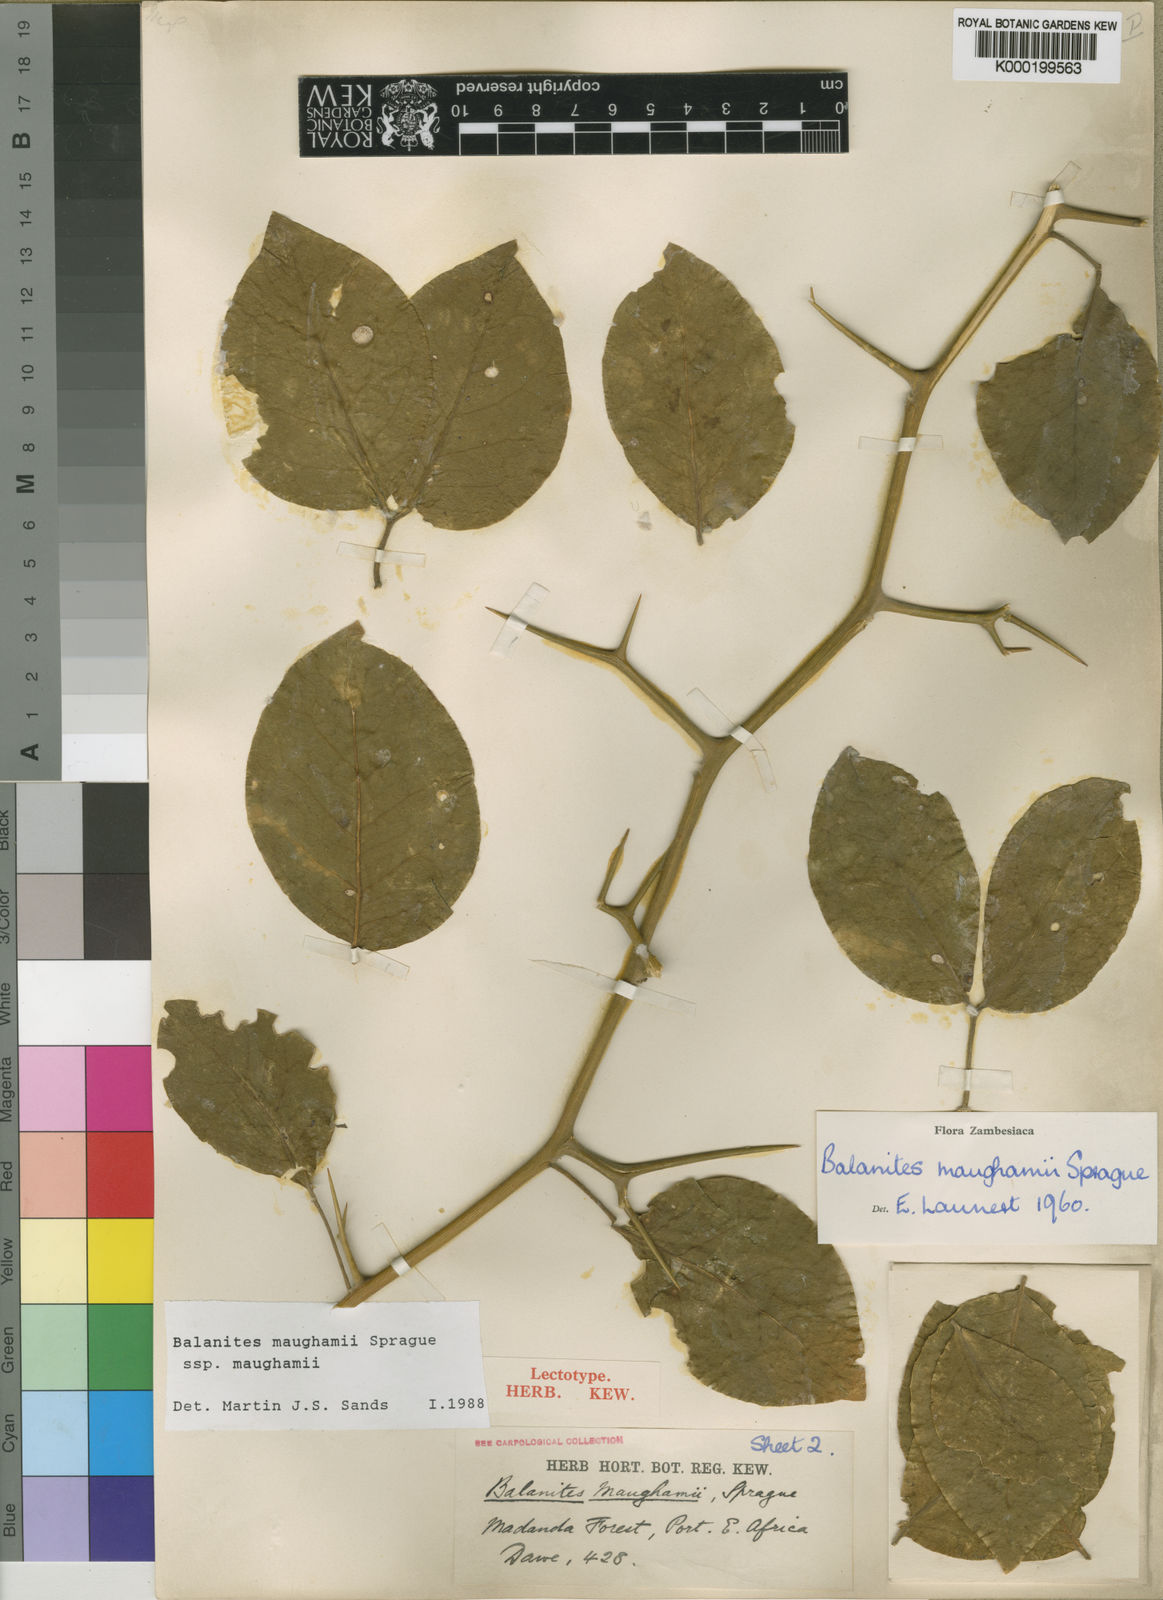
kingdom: Plantae
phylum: Tracheophyta
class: Magnoliopsida
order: Zygophyllales
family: Zygophyllaceae
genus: Balanites
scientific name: Balanites maughamii
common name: Torchwood
